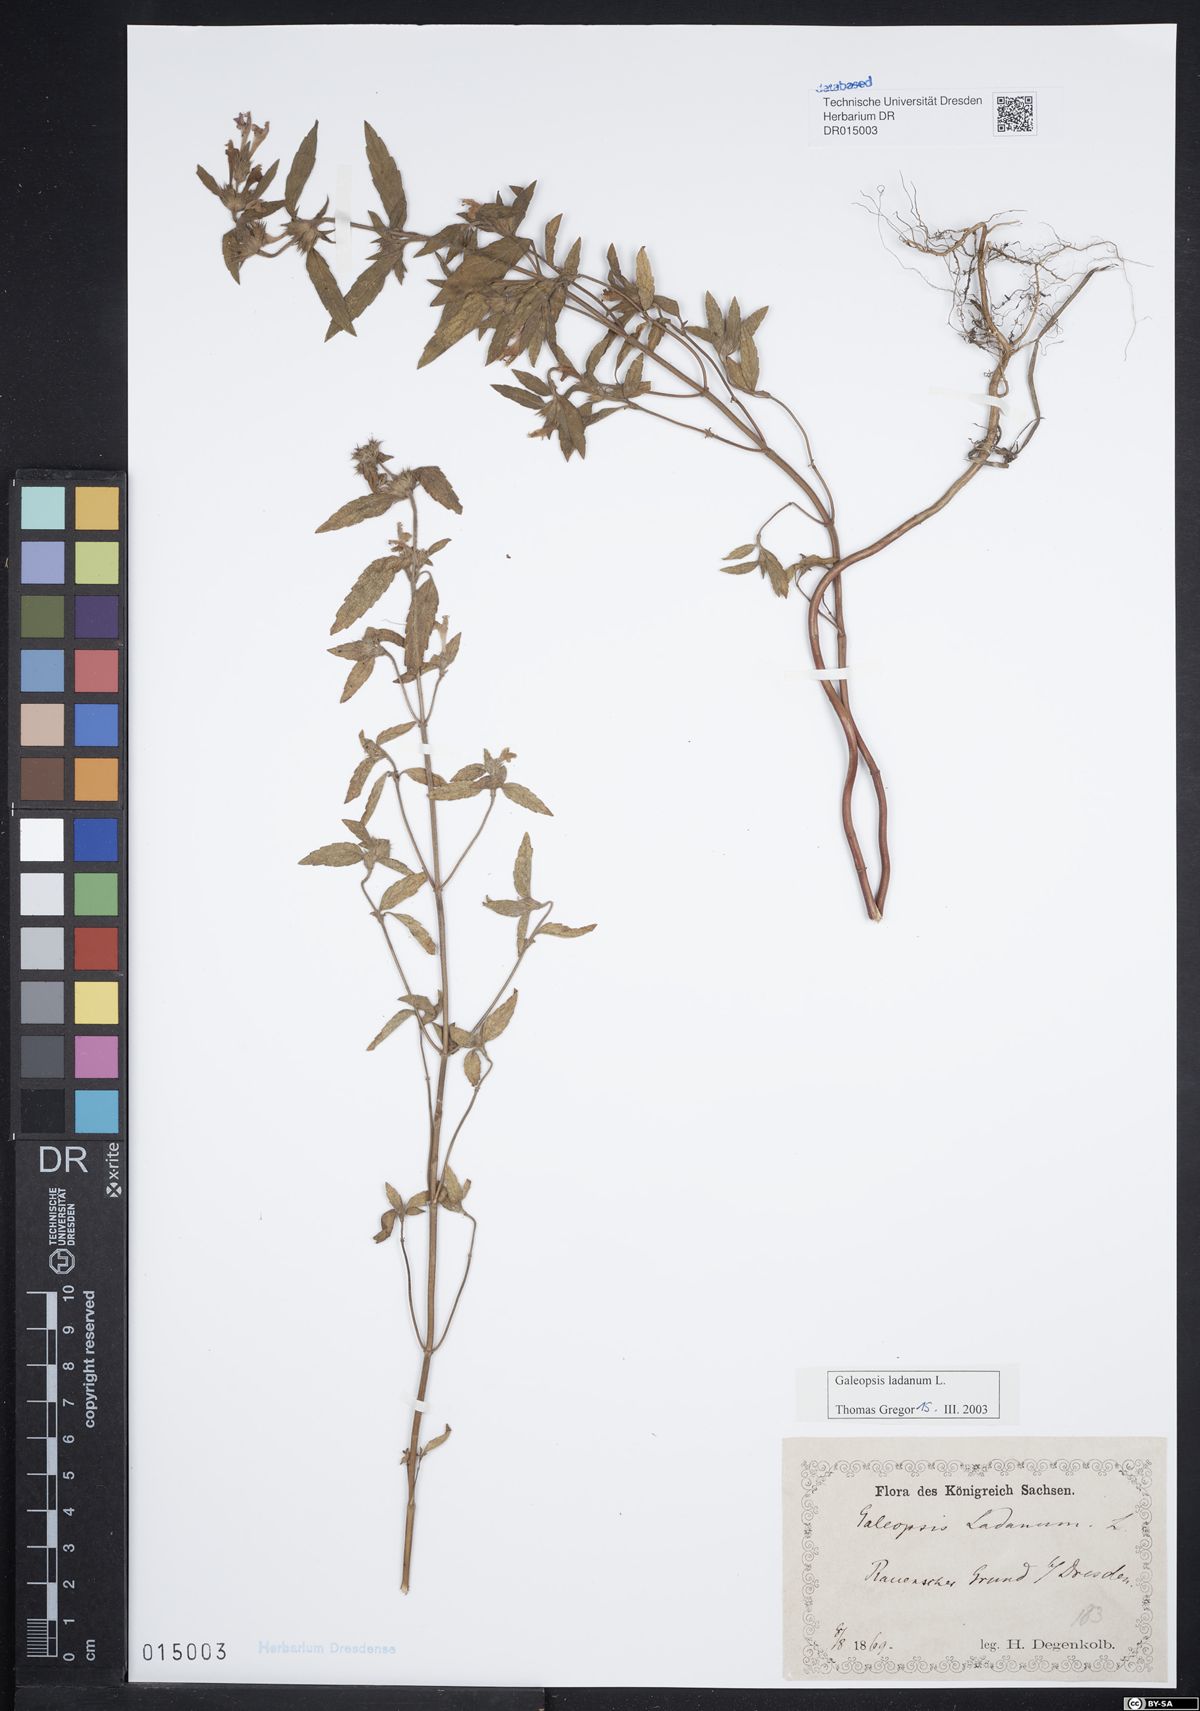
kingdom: Plantae
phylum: Tracheophyta
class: Magnoliopsida
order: Lamiales
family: Lamiaceae
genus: Galeopsis
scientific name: Galeopsis ladanum
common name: Broad-leaved hemp-nettle
